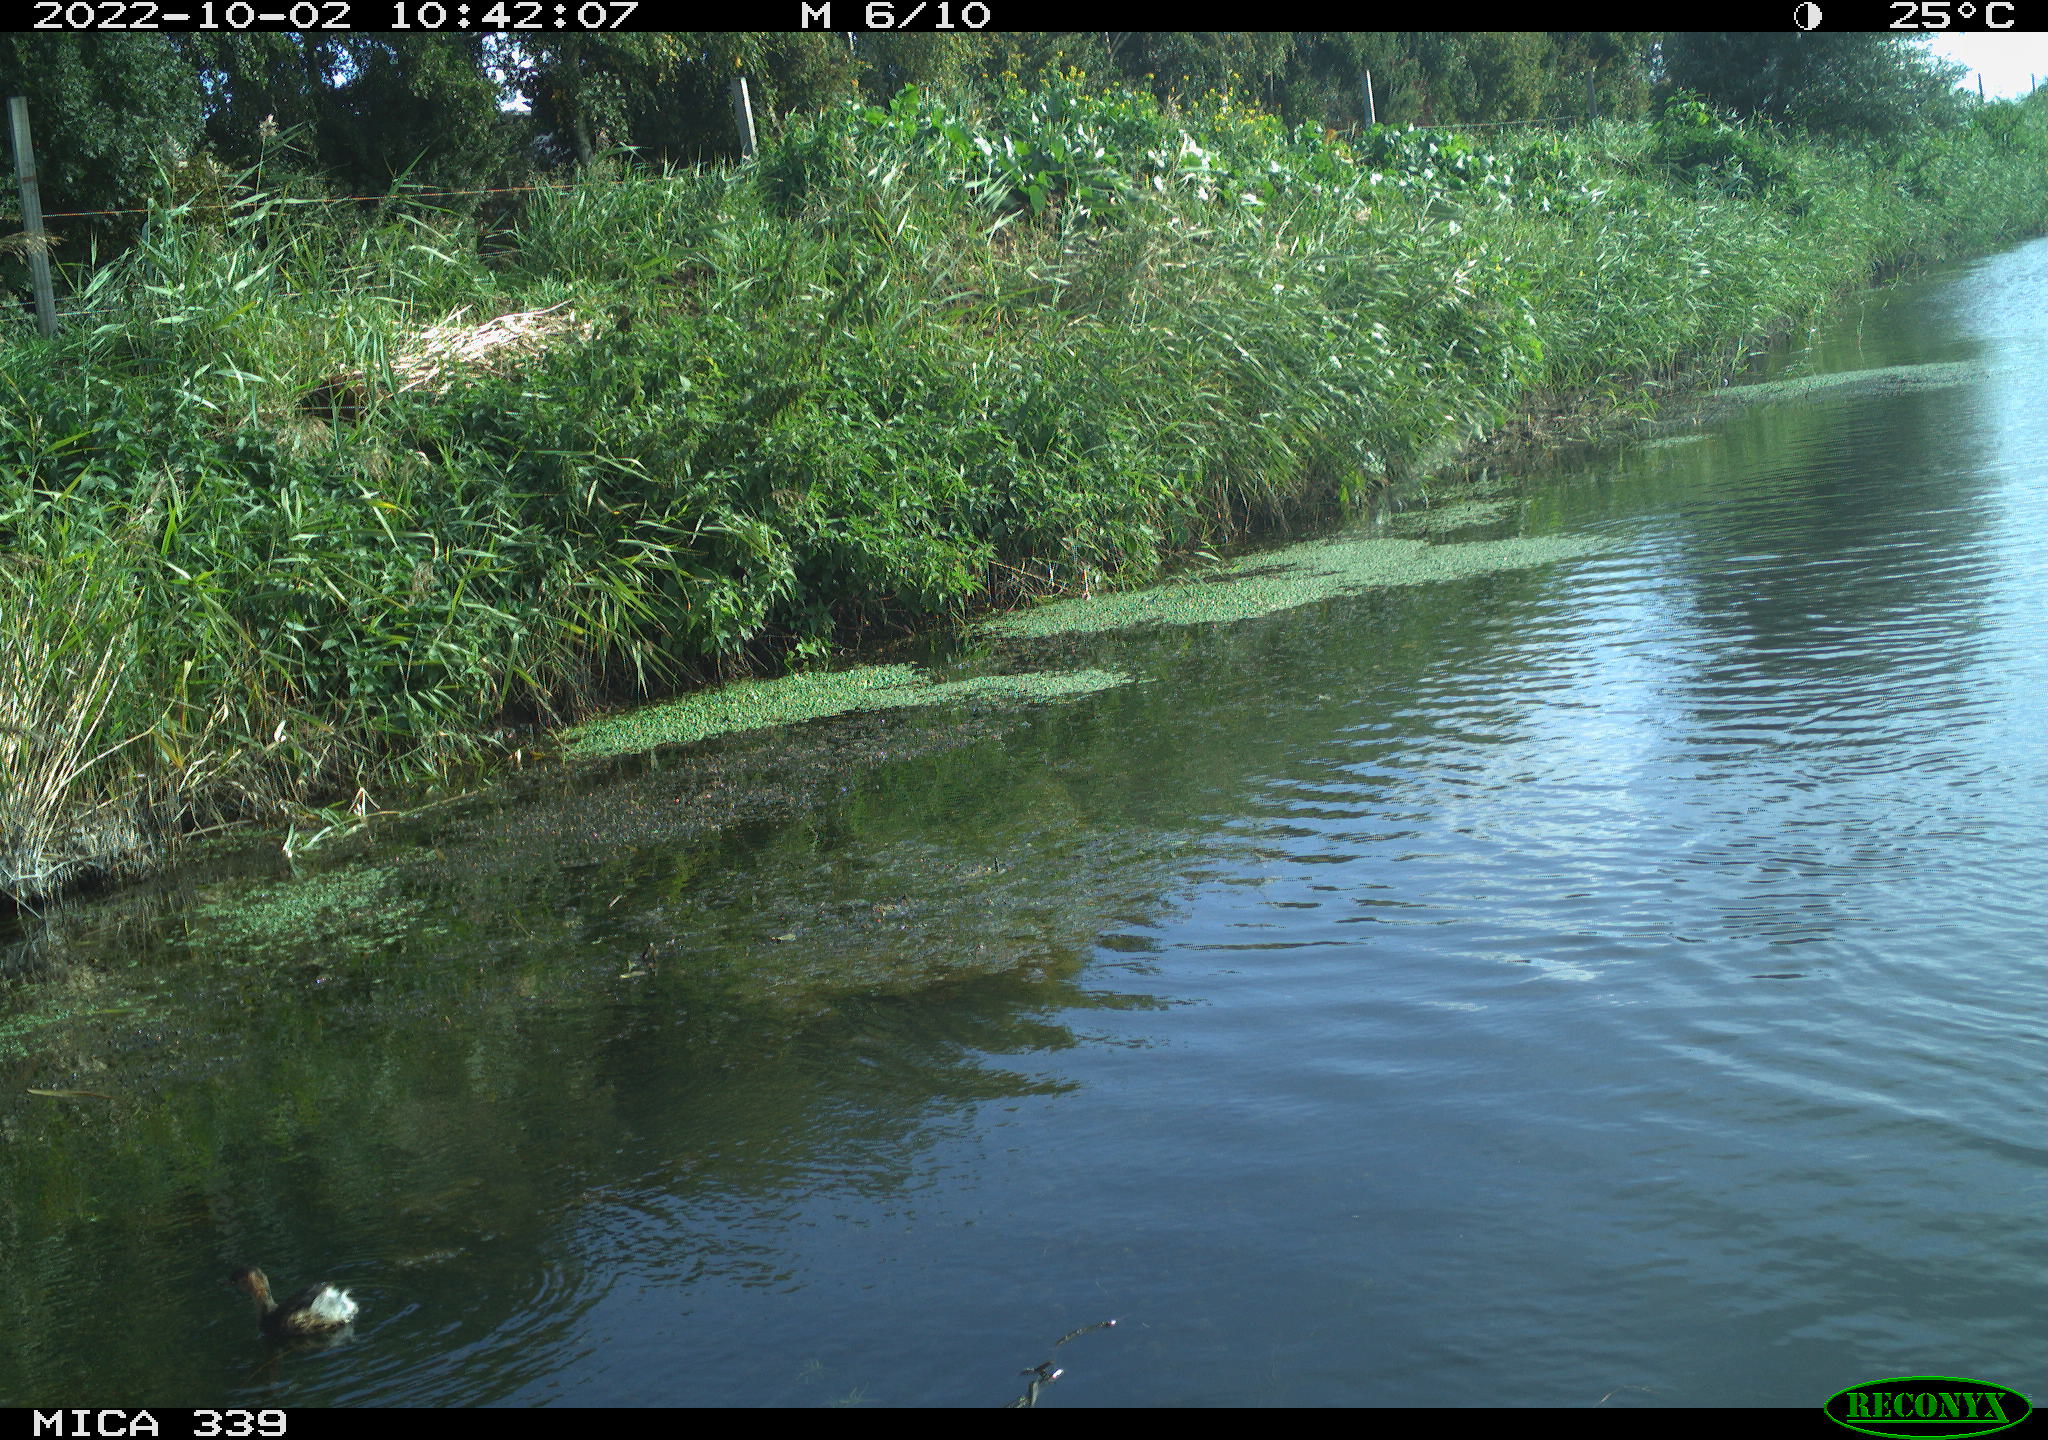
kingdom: Animalia
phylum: Chordata
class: Aves
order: Podicipediformes
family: Podicipedidae
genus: Tachybaptus
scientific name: Tachybaptus ruficollis
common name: Little grebe
